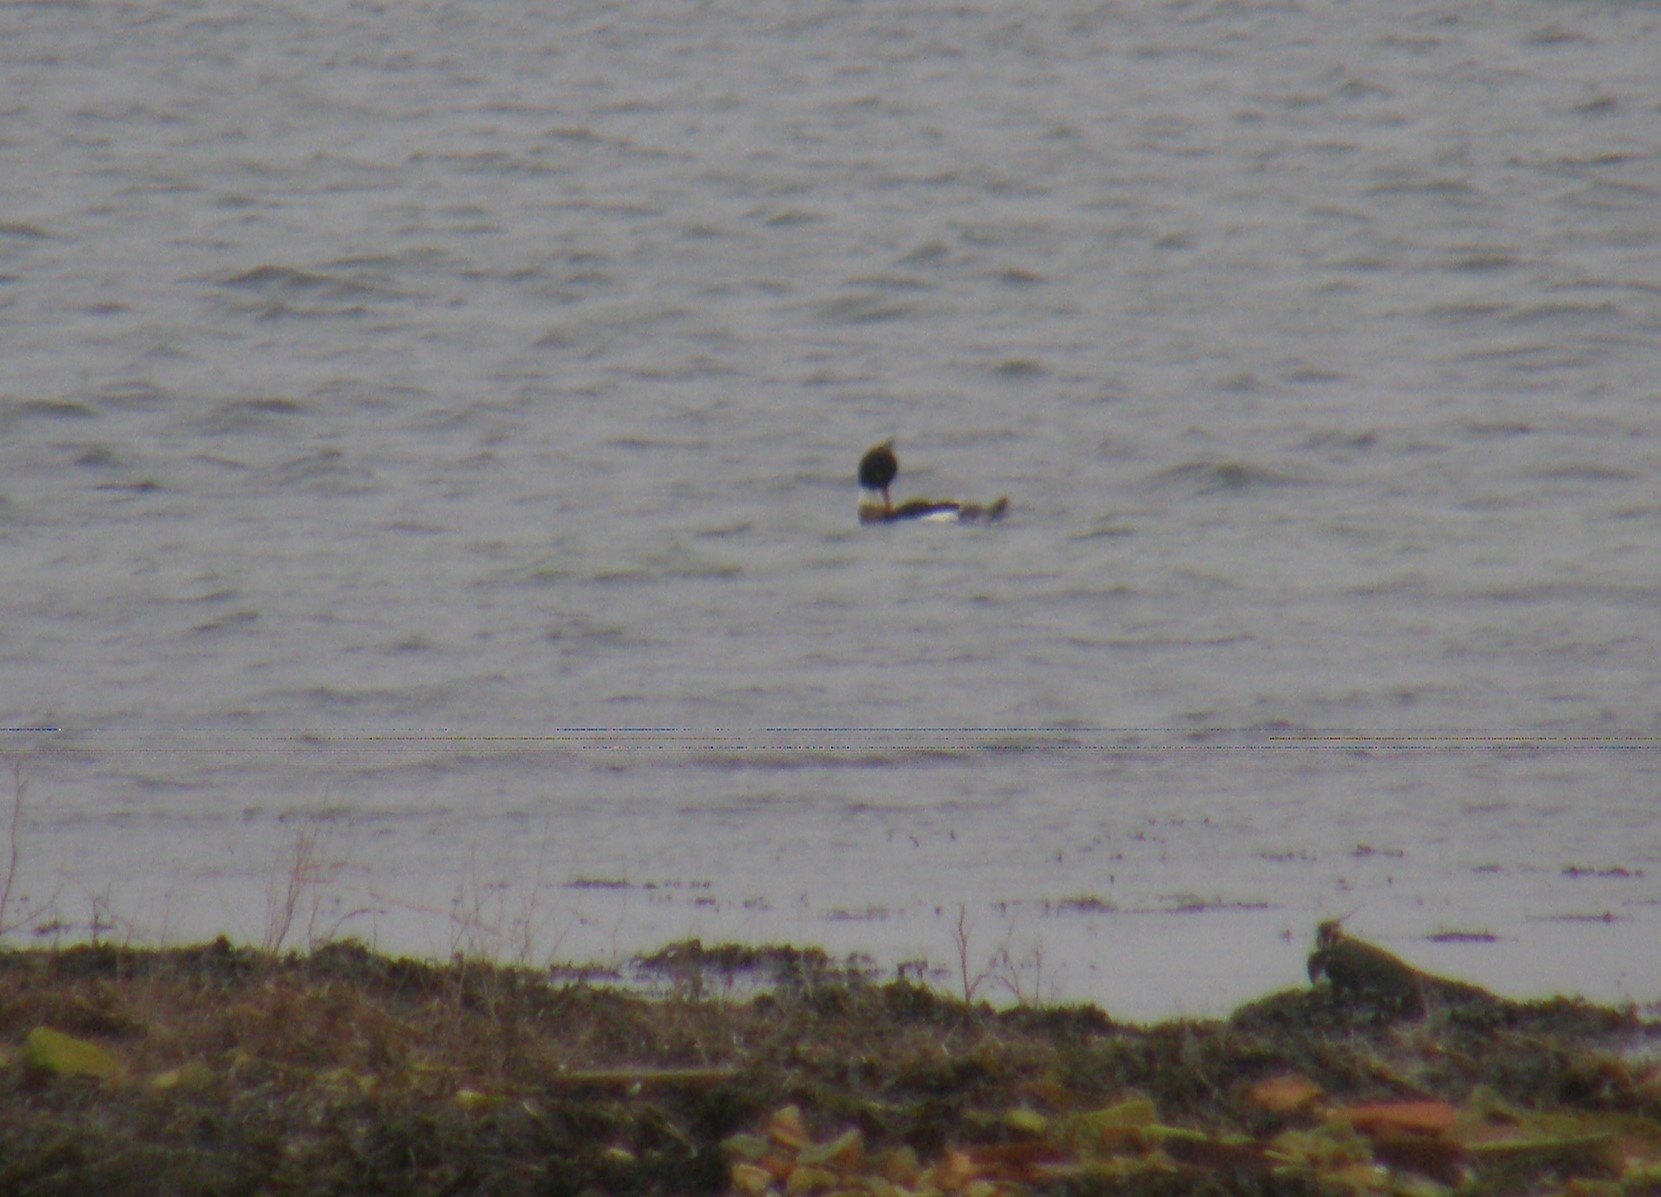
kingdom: Animalia
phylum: Chordata
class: Aves
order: Anseriformes
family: Anatidae
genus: Mergus
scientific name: Mergus serrator
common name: Toppet skallesluger
